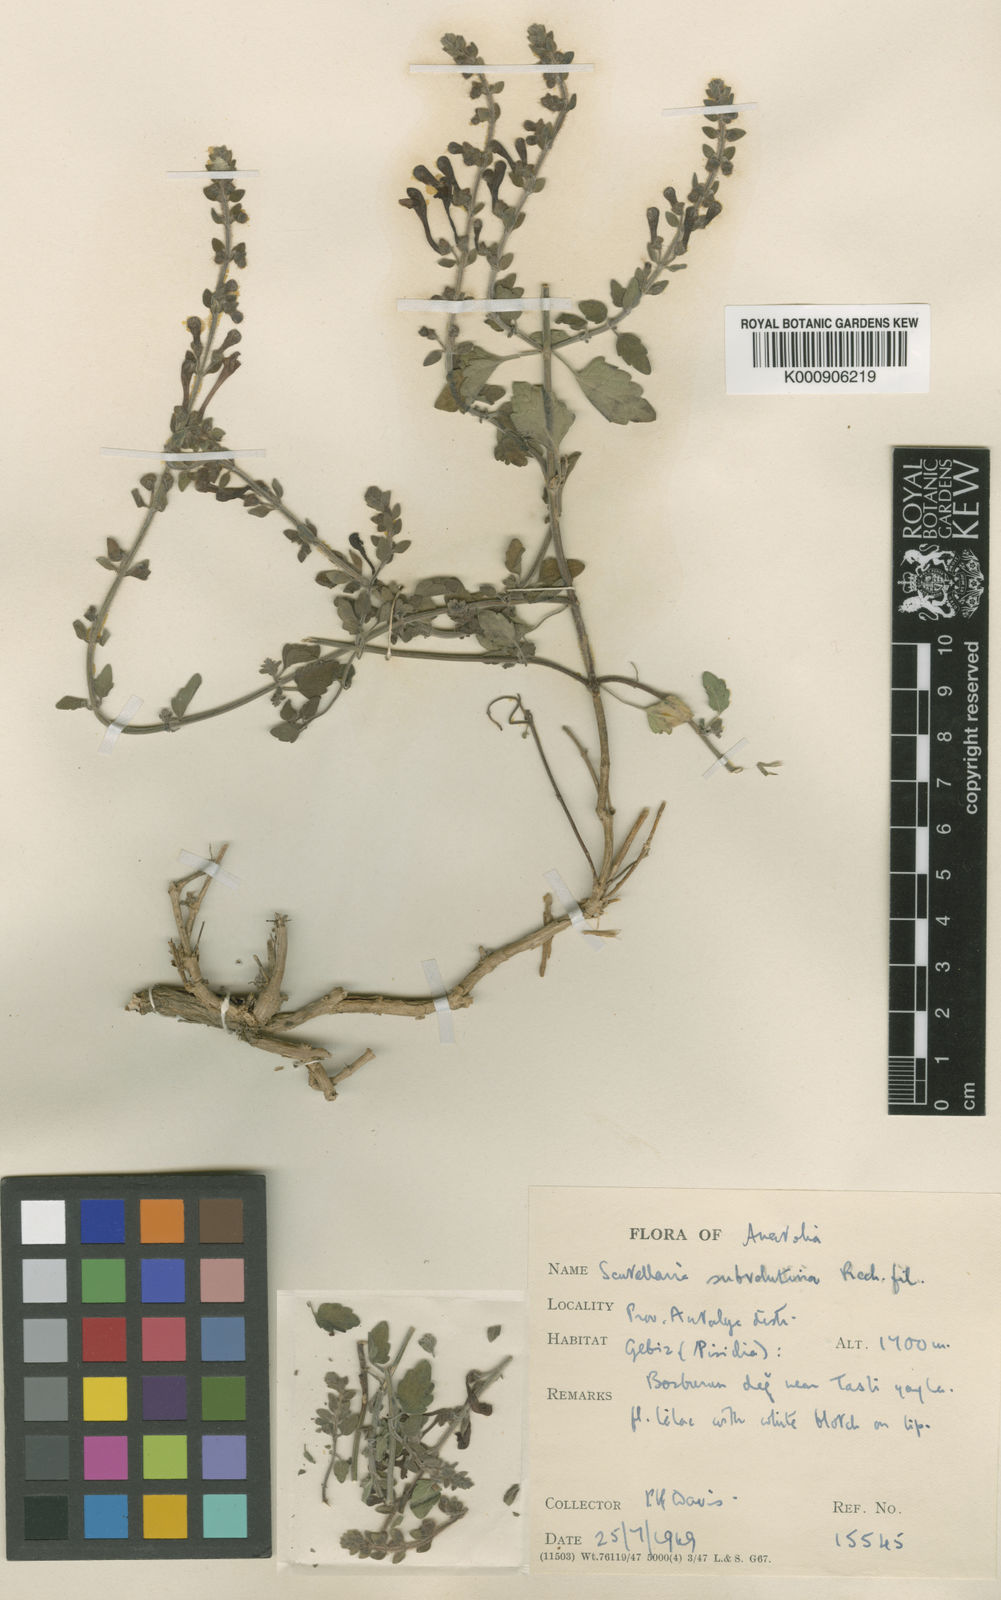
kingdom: Plantae
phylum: Tracheophyta
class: Magnoliopsida
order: Lamiales
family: Lamiaceae
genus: Scutellaria
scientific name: Scutellaria columnae
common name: Large skullcap
